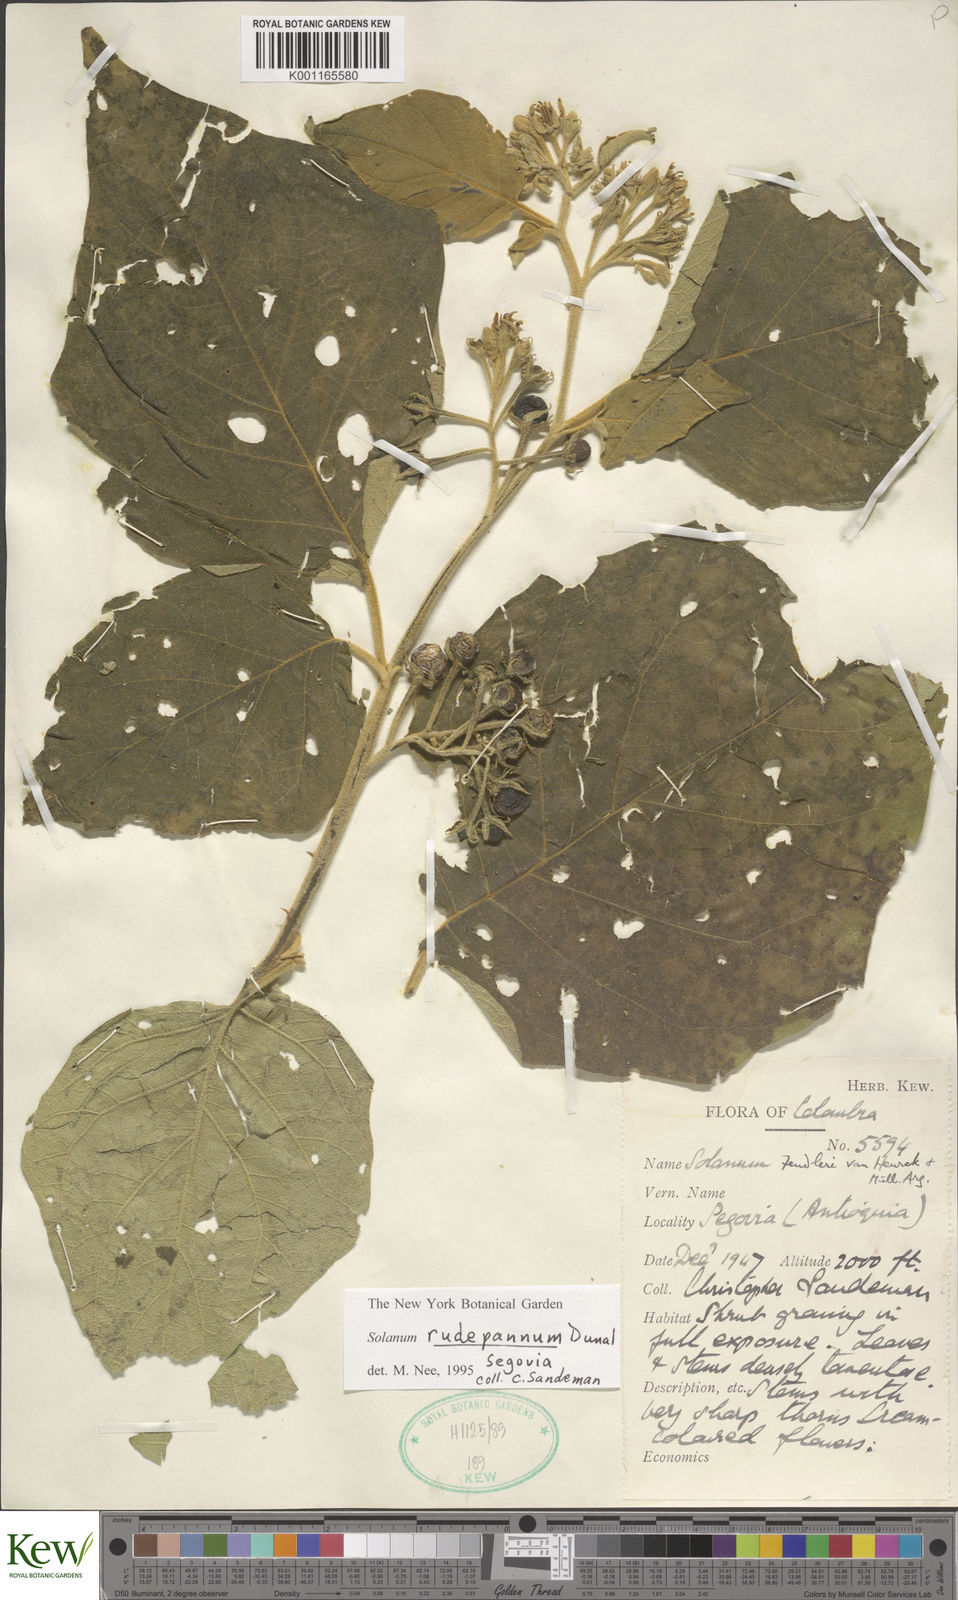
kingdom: Plantae
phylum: Tracheophyta
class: Magnoliopsida
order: Solanales
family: Solanaceae
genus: Solanum
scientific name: Solanum rude-pannum
